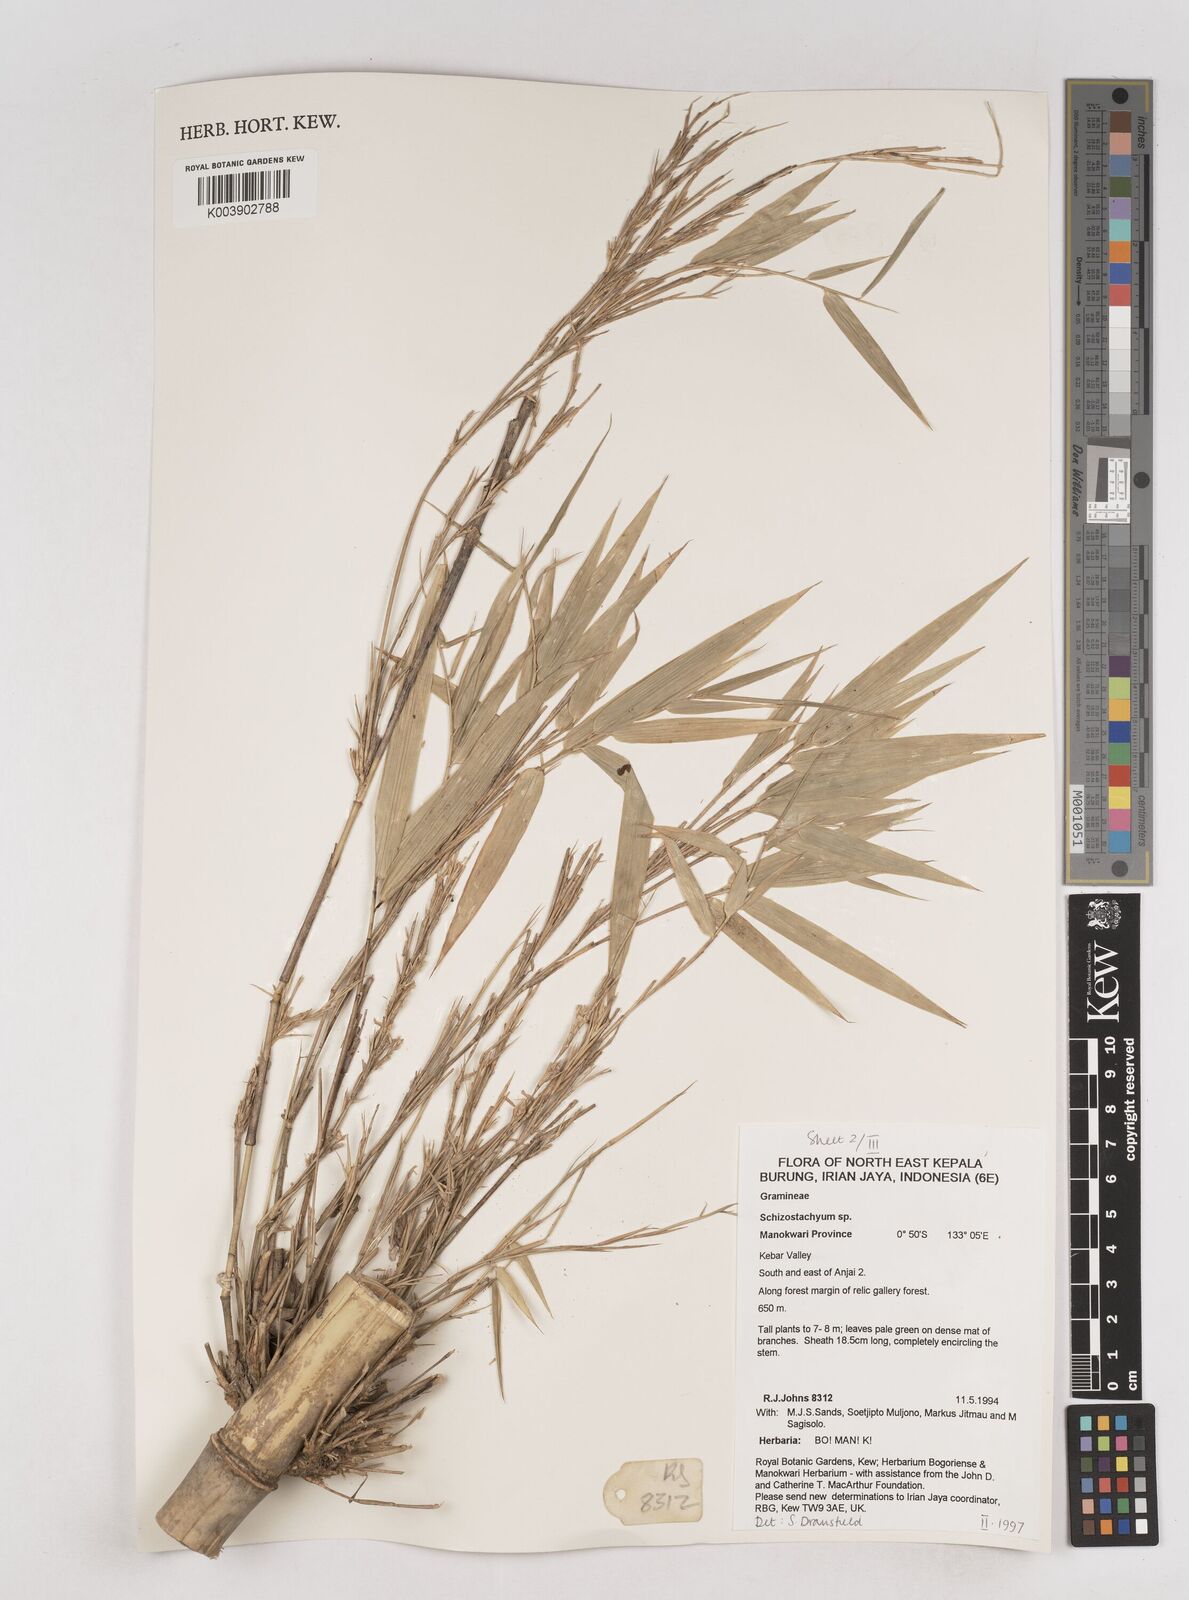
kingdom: Plantae
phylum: Tracheophyta
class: Liliopsida
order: Poales
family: Poaceae
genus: Schizostachyum
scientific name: Schizostachyum
